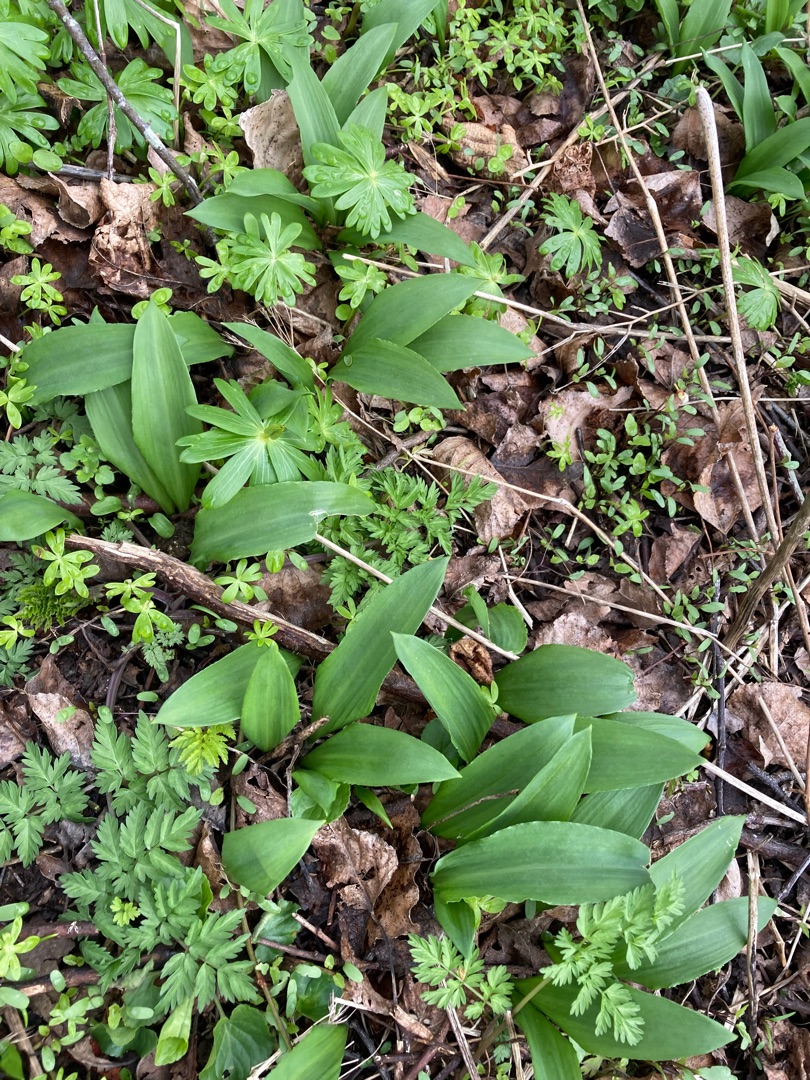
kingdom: Plantae
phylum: Tracheophyta
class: Liliopsida
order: Asparagales
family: Amaryllidaceae
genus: Allium
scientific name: Allium ursinum
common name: Rams-løg
